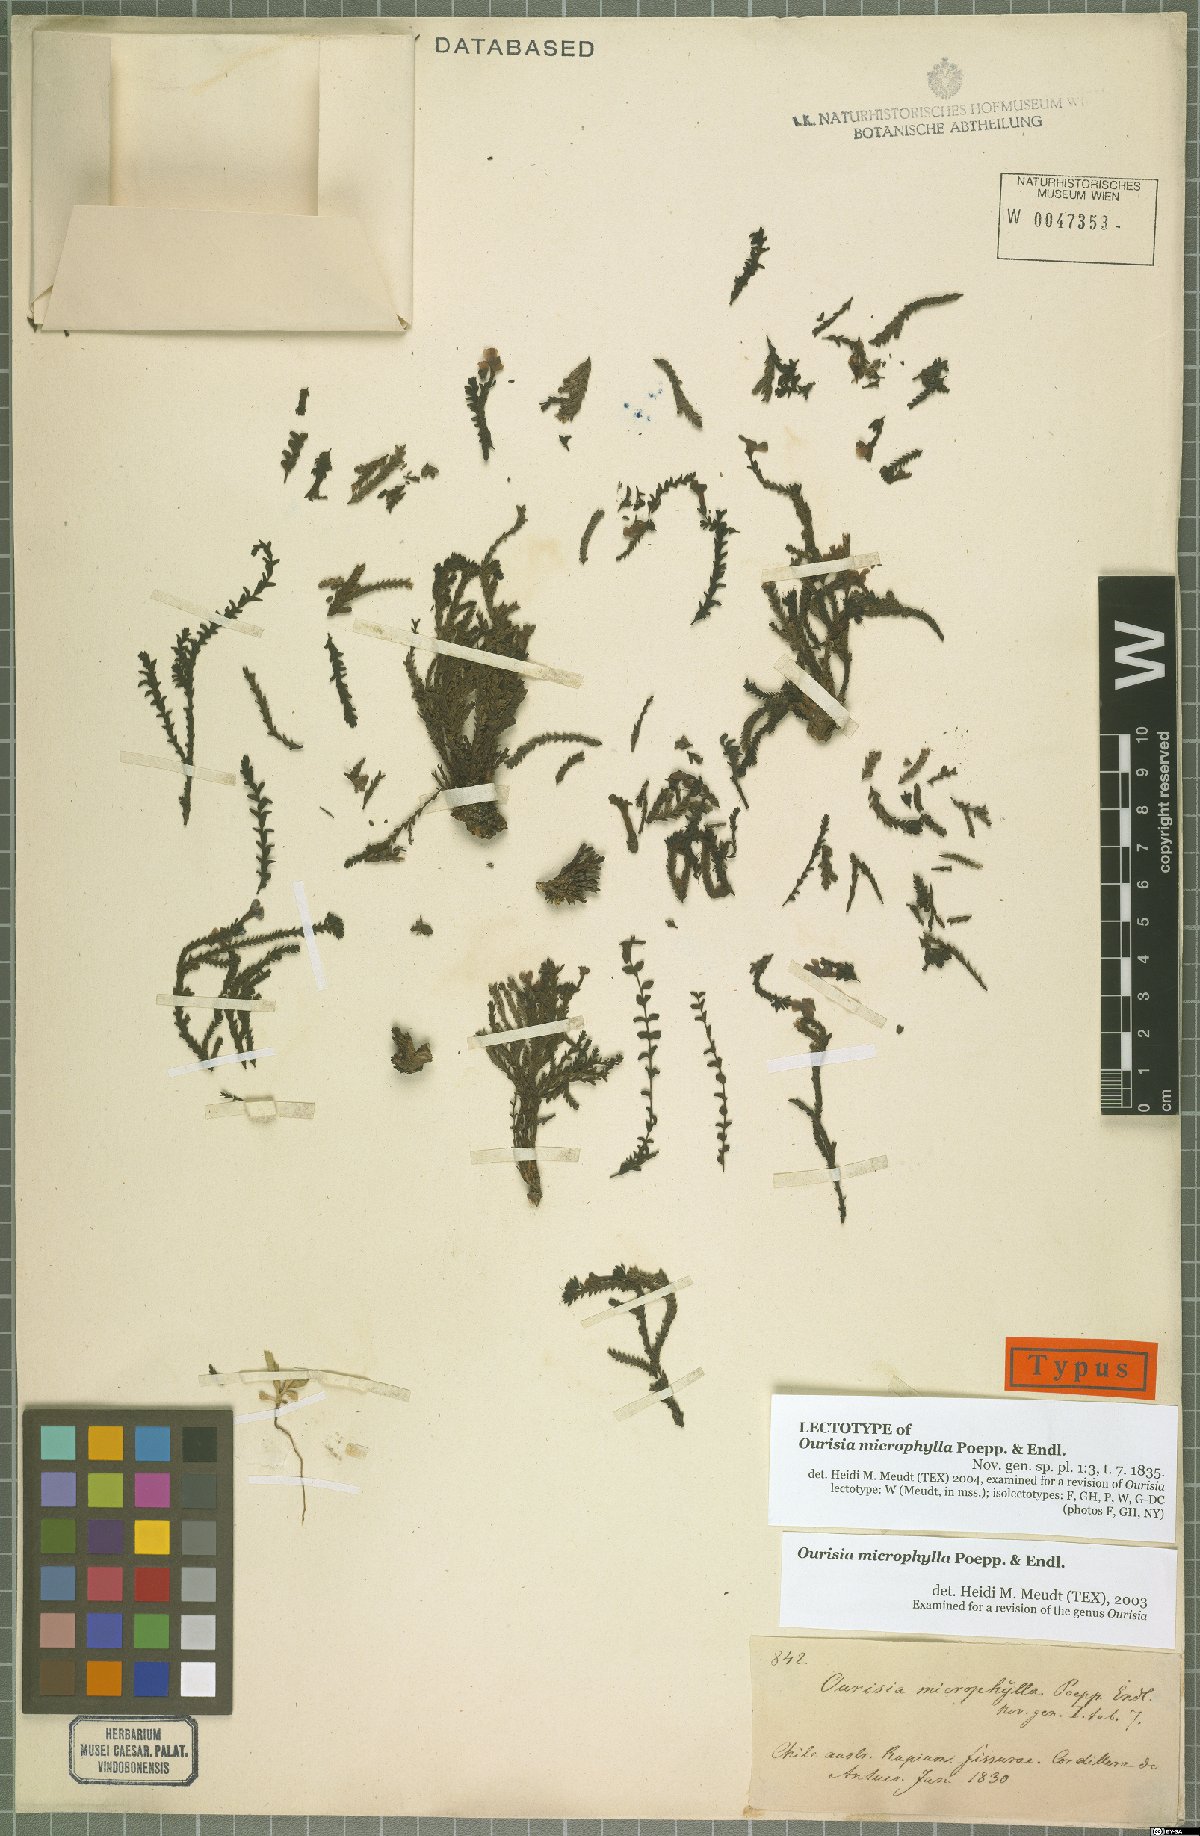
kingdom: Plantae
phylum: Tracheophyta
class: Magnoliopsida
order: Lamiales
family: Plantaginaceae
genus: Ourisia
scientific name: Ourisia microphylla
